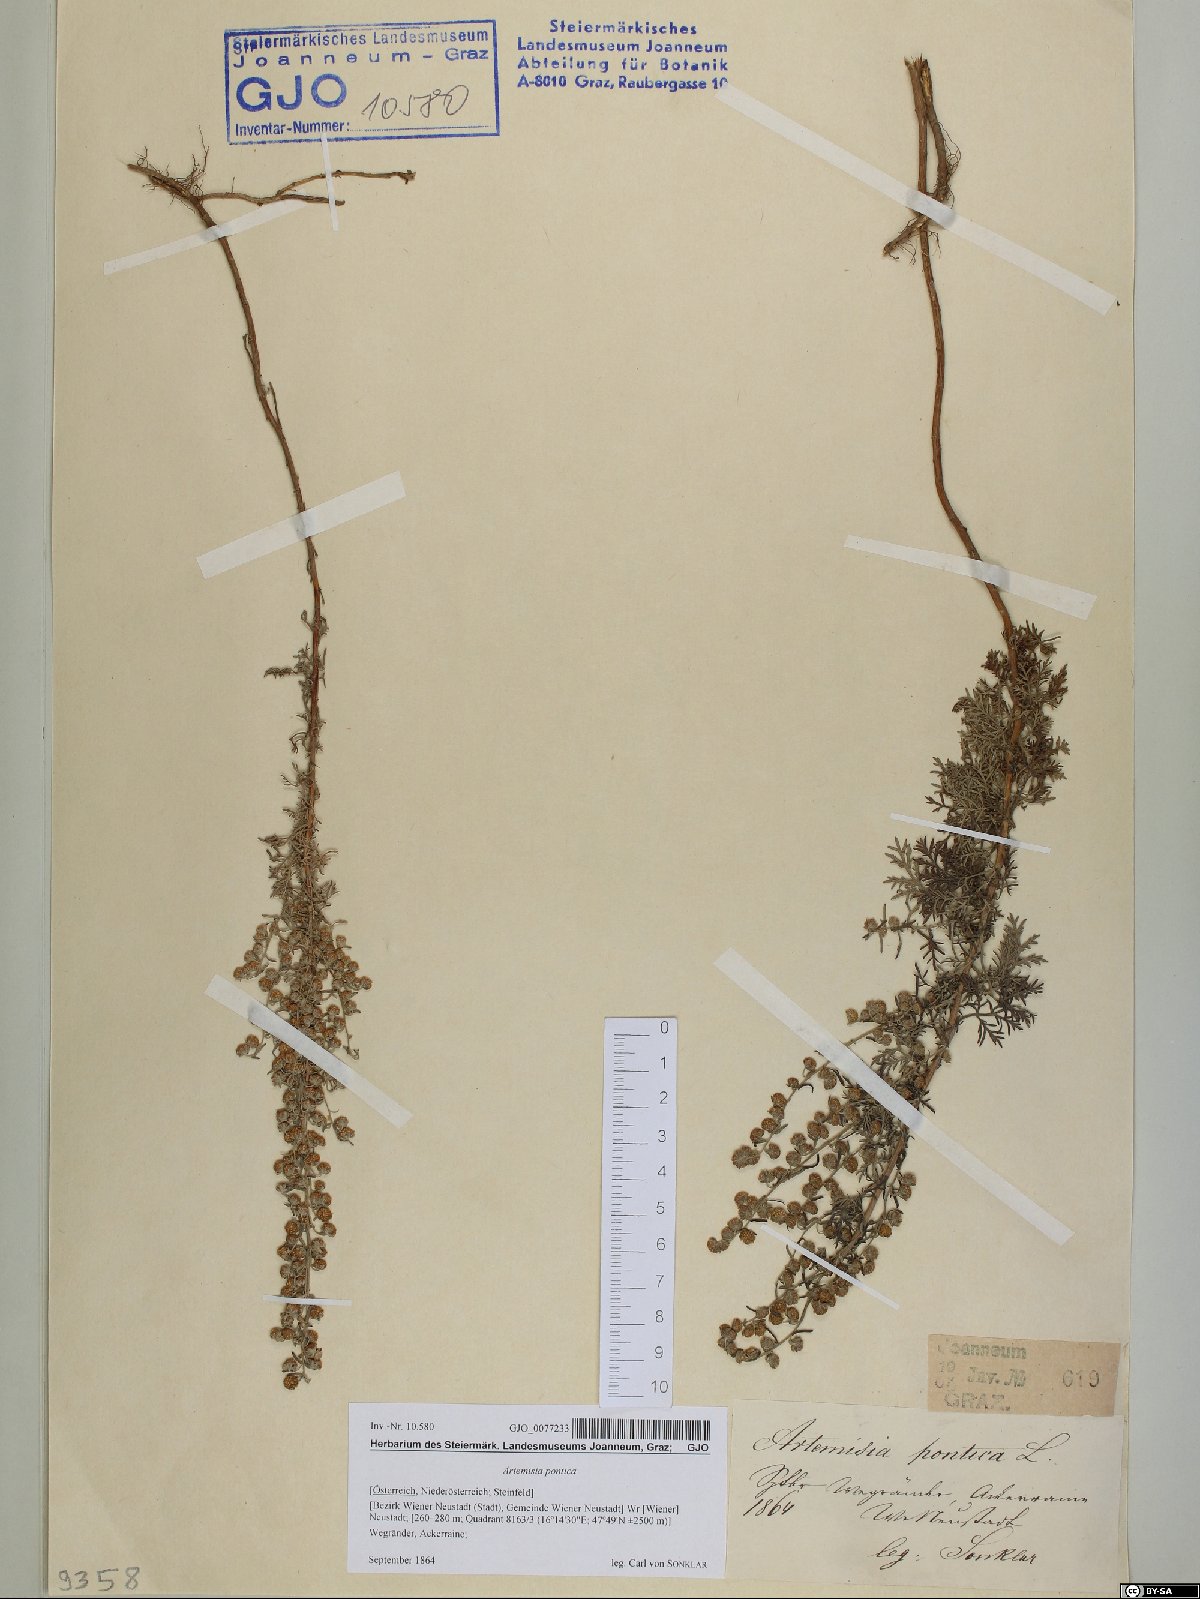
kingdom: Plantae
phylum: Tracheophyta
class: Magnoliopsida
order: Asterales
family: Asteraceae
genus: Artemisia
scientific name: Artemisia pontica
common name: Roman wormwood
